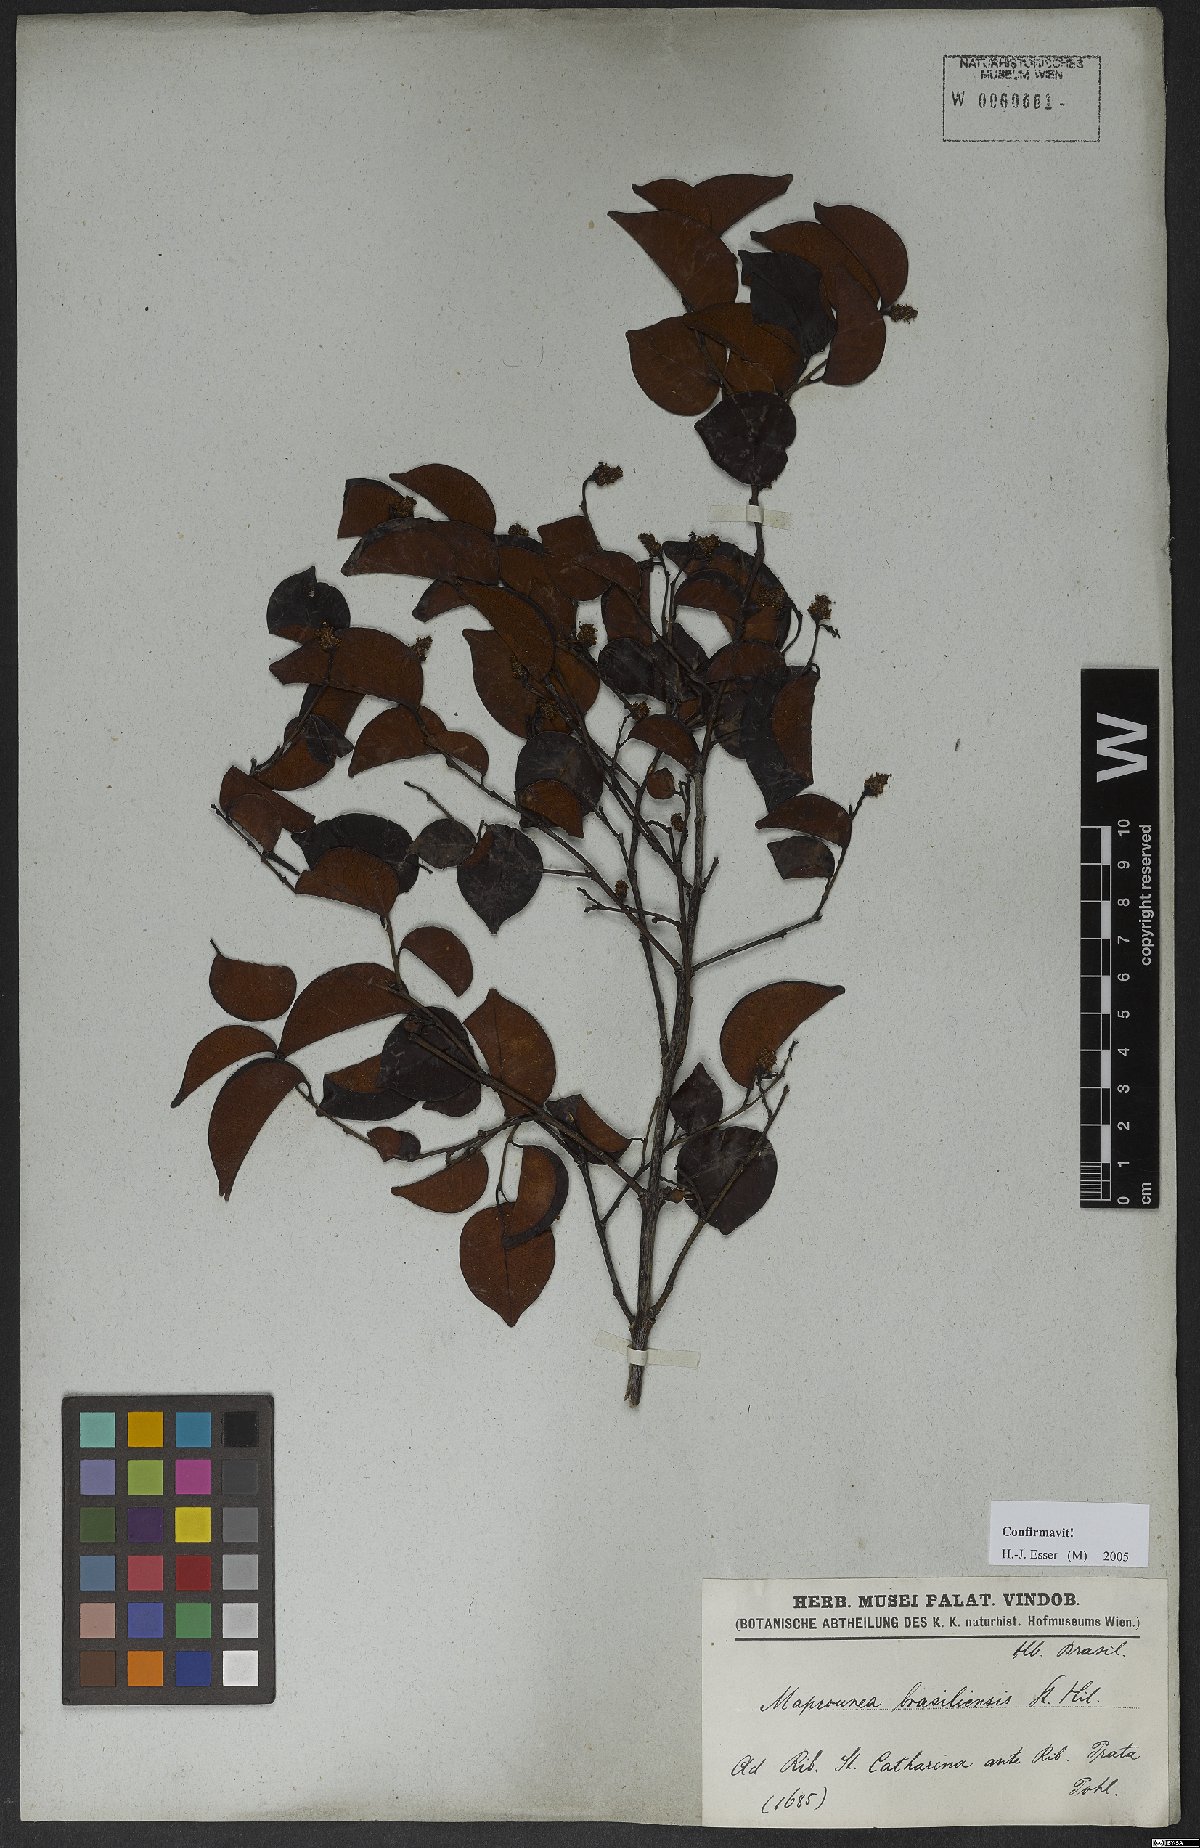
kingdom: Plantae
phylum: Tracheophyta
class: Magnoliopsida
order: Malpighiales
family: Euphorbiaceae
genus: Maprounea
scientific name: Maprounea brasiliensis
